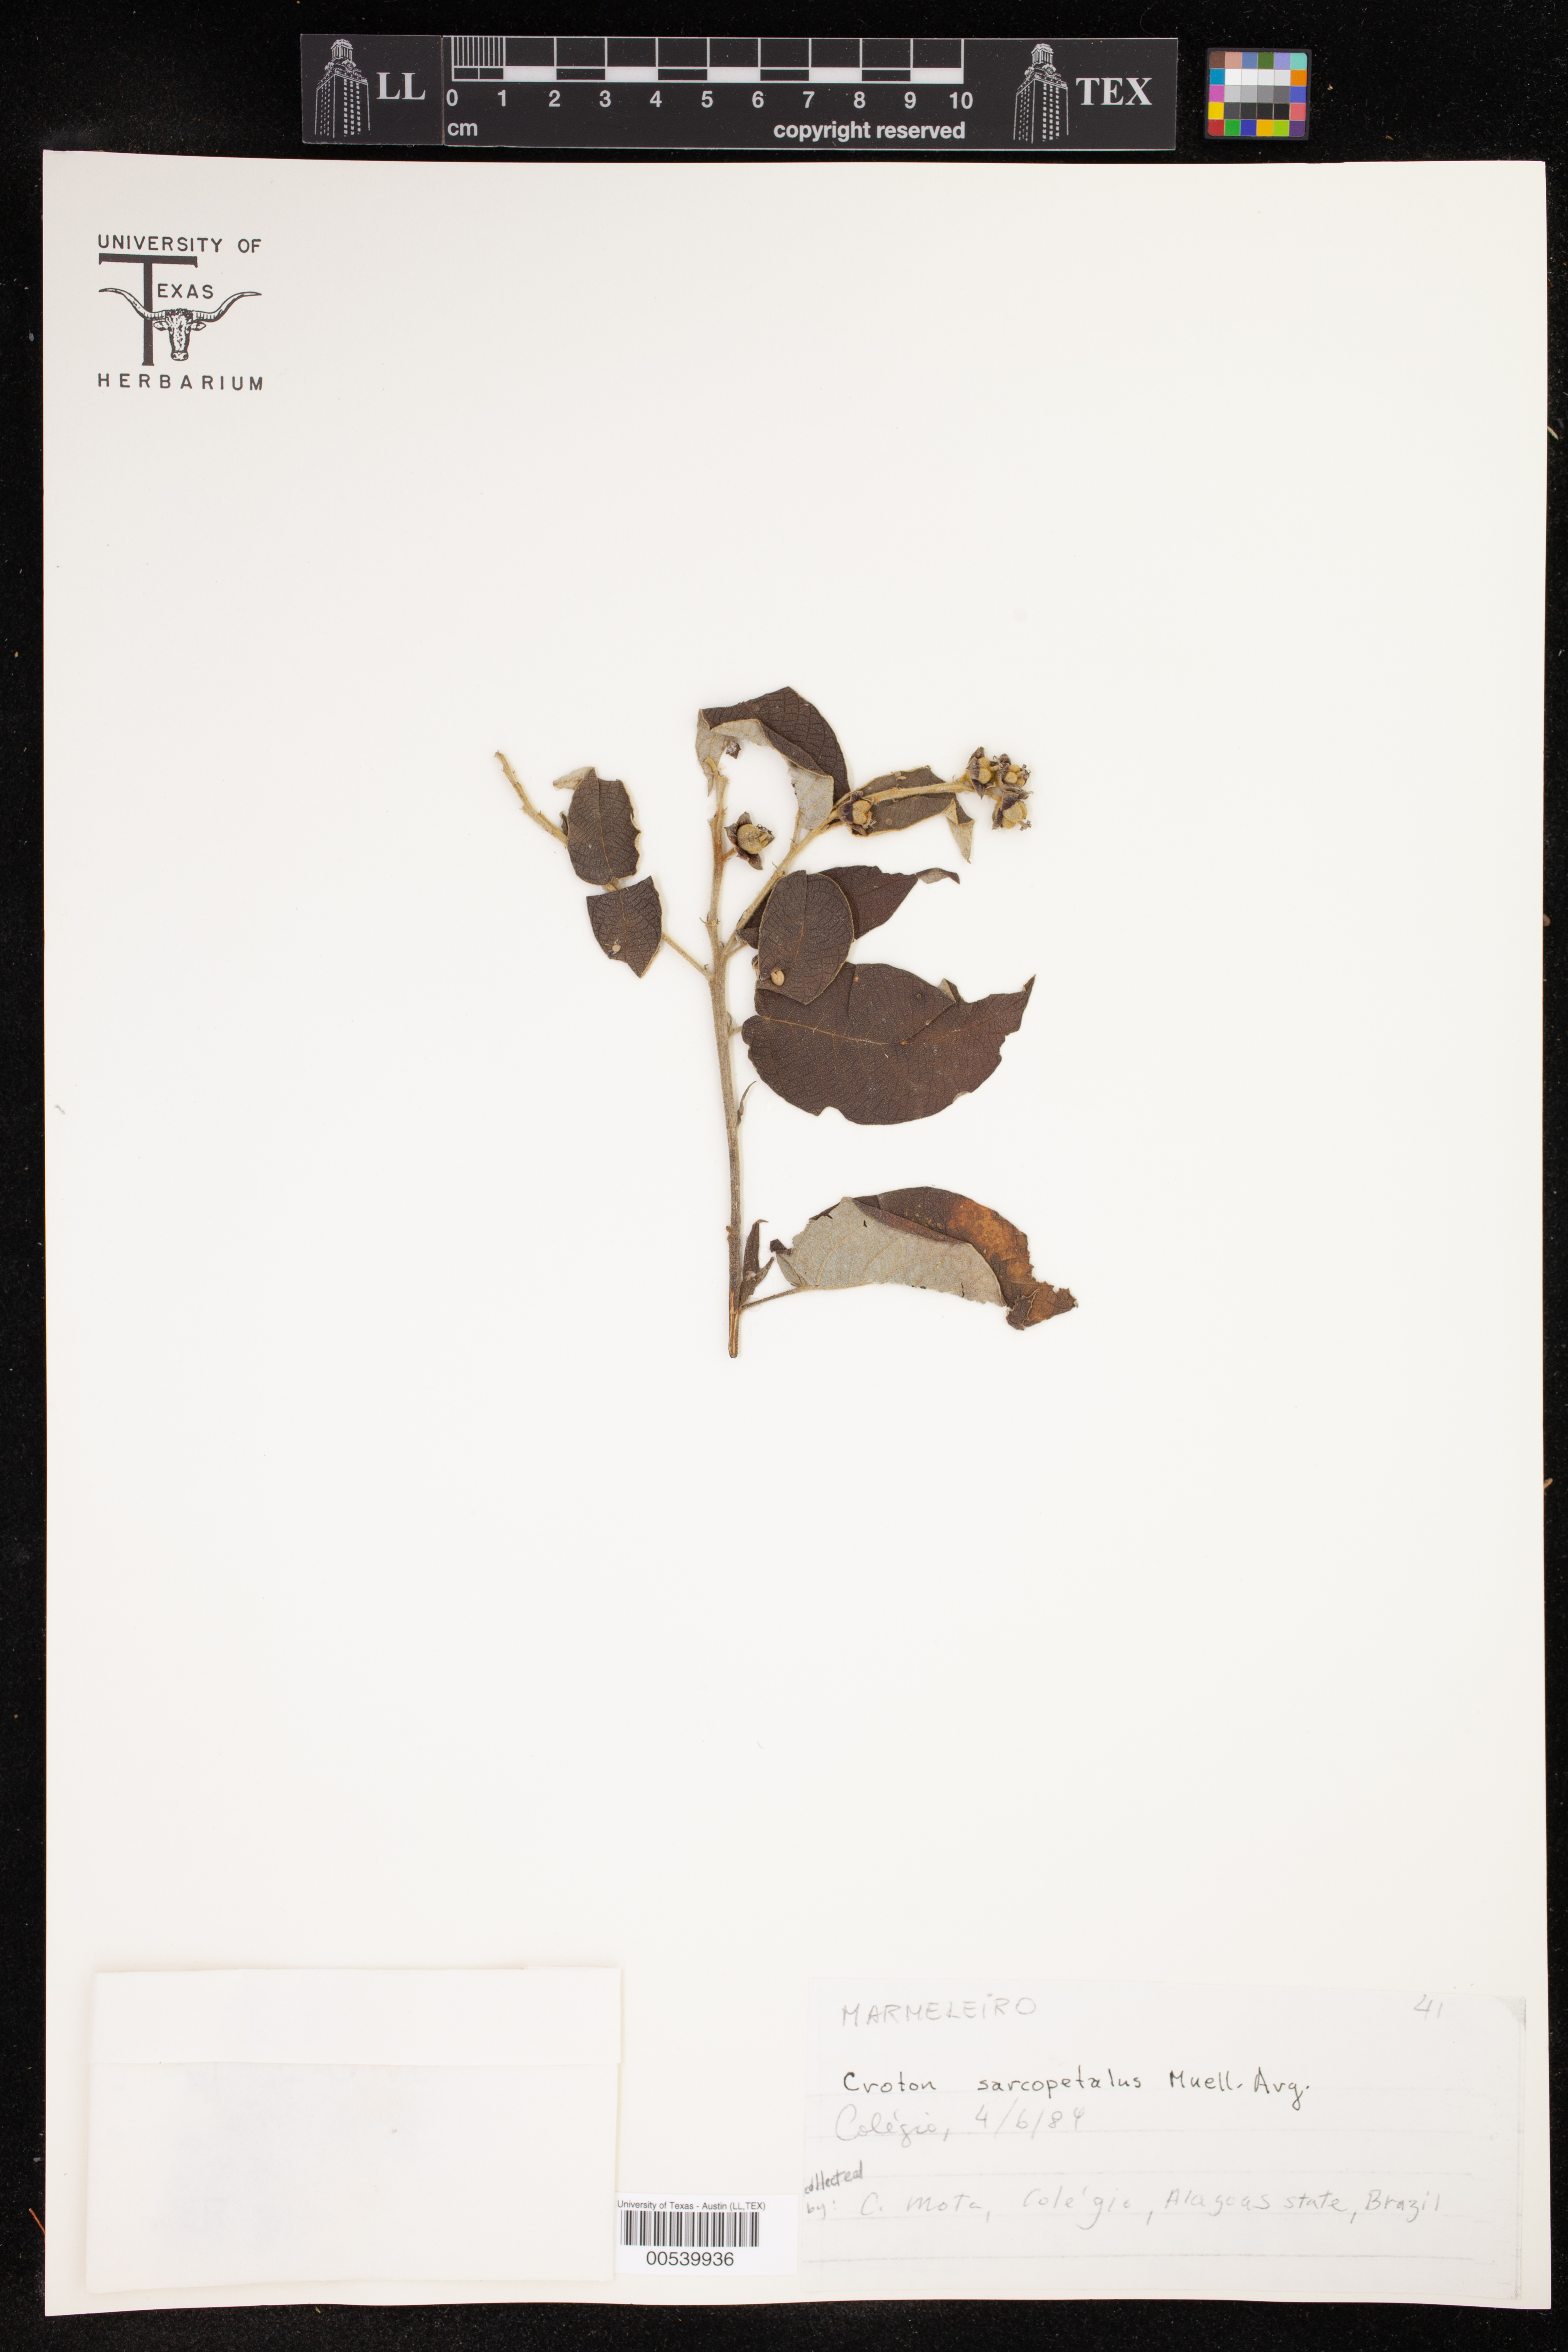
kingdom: Plantae
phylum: Tracheophyta
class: Magnoliopsida
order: Malpighiales
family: Euphorbiaceae
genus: Croton
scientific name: Croton lachnostachyus
